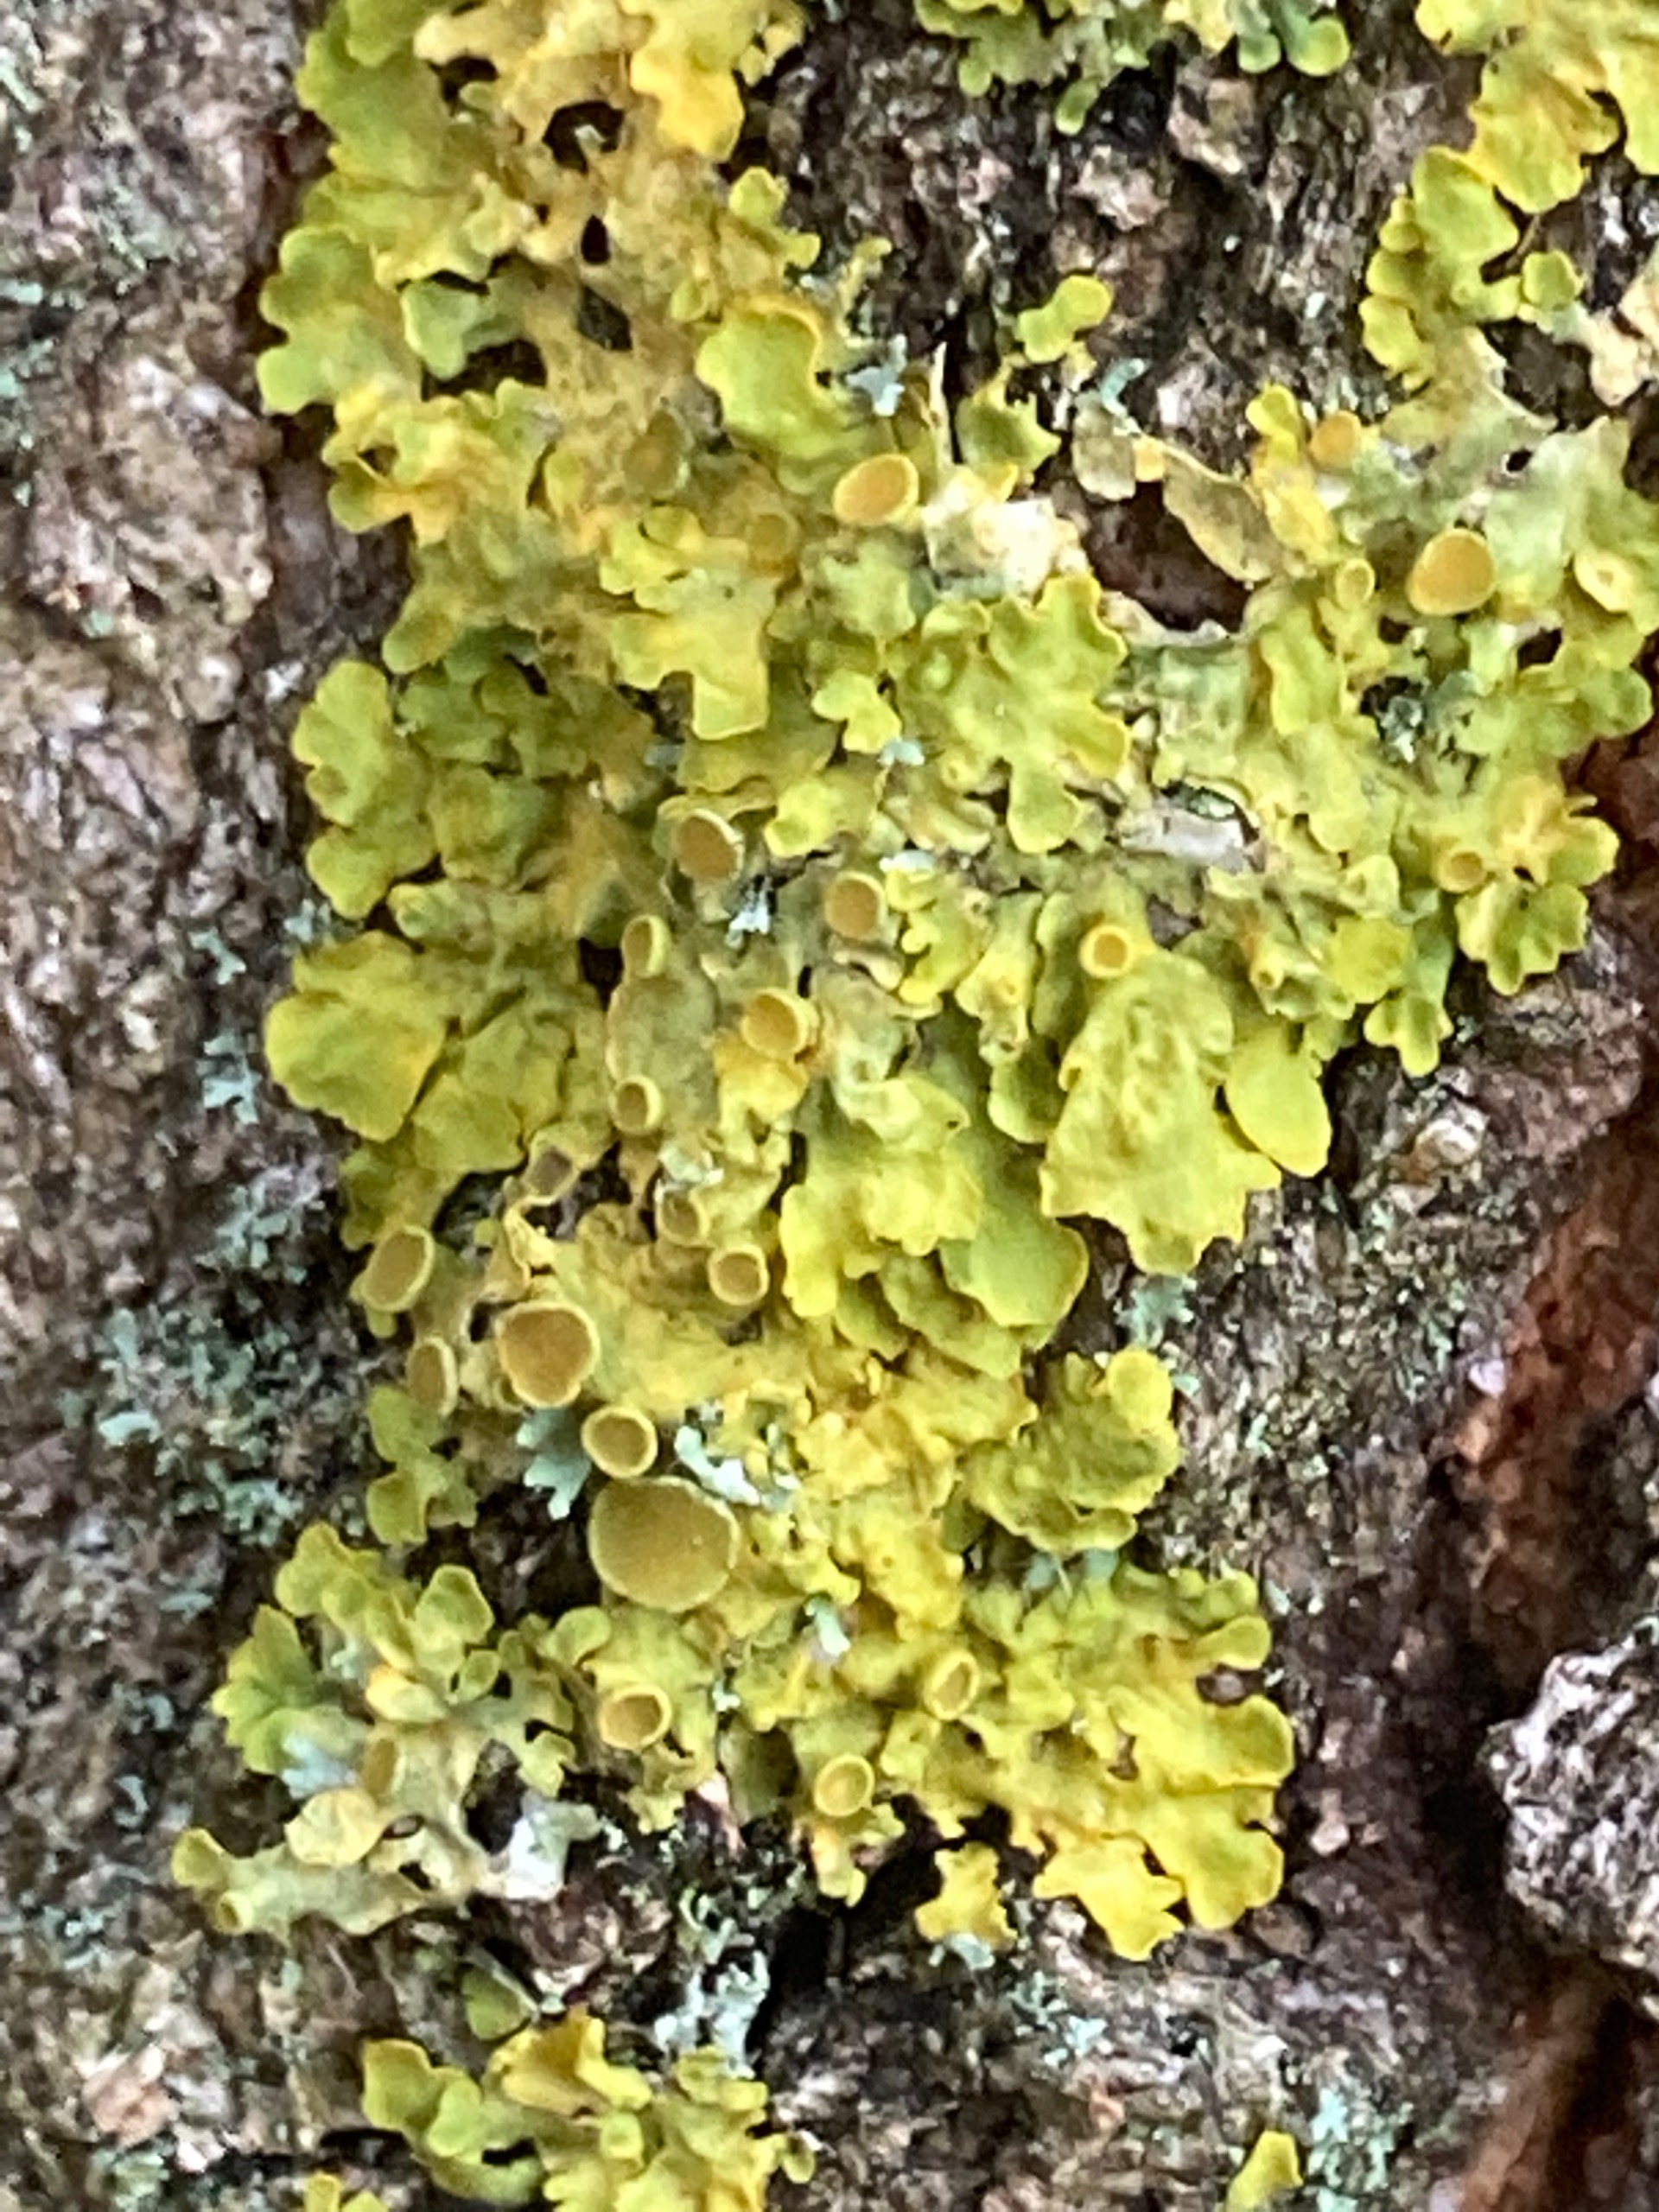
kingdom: Fungi
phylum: Ascomycota
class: Lecanoromycetes
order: Teloschistales
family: Teloschistaceae
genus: Xanthoria
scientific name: Xanthoria parietina
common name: Almindelig væggelav
